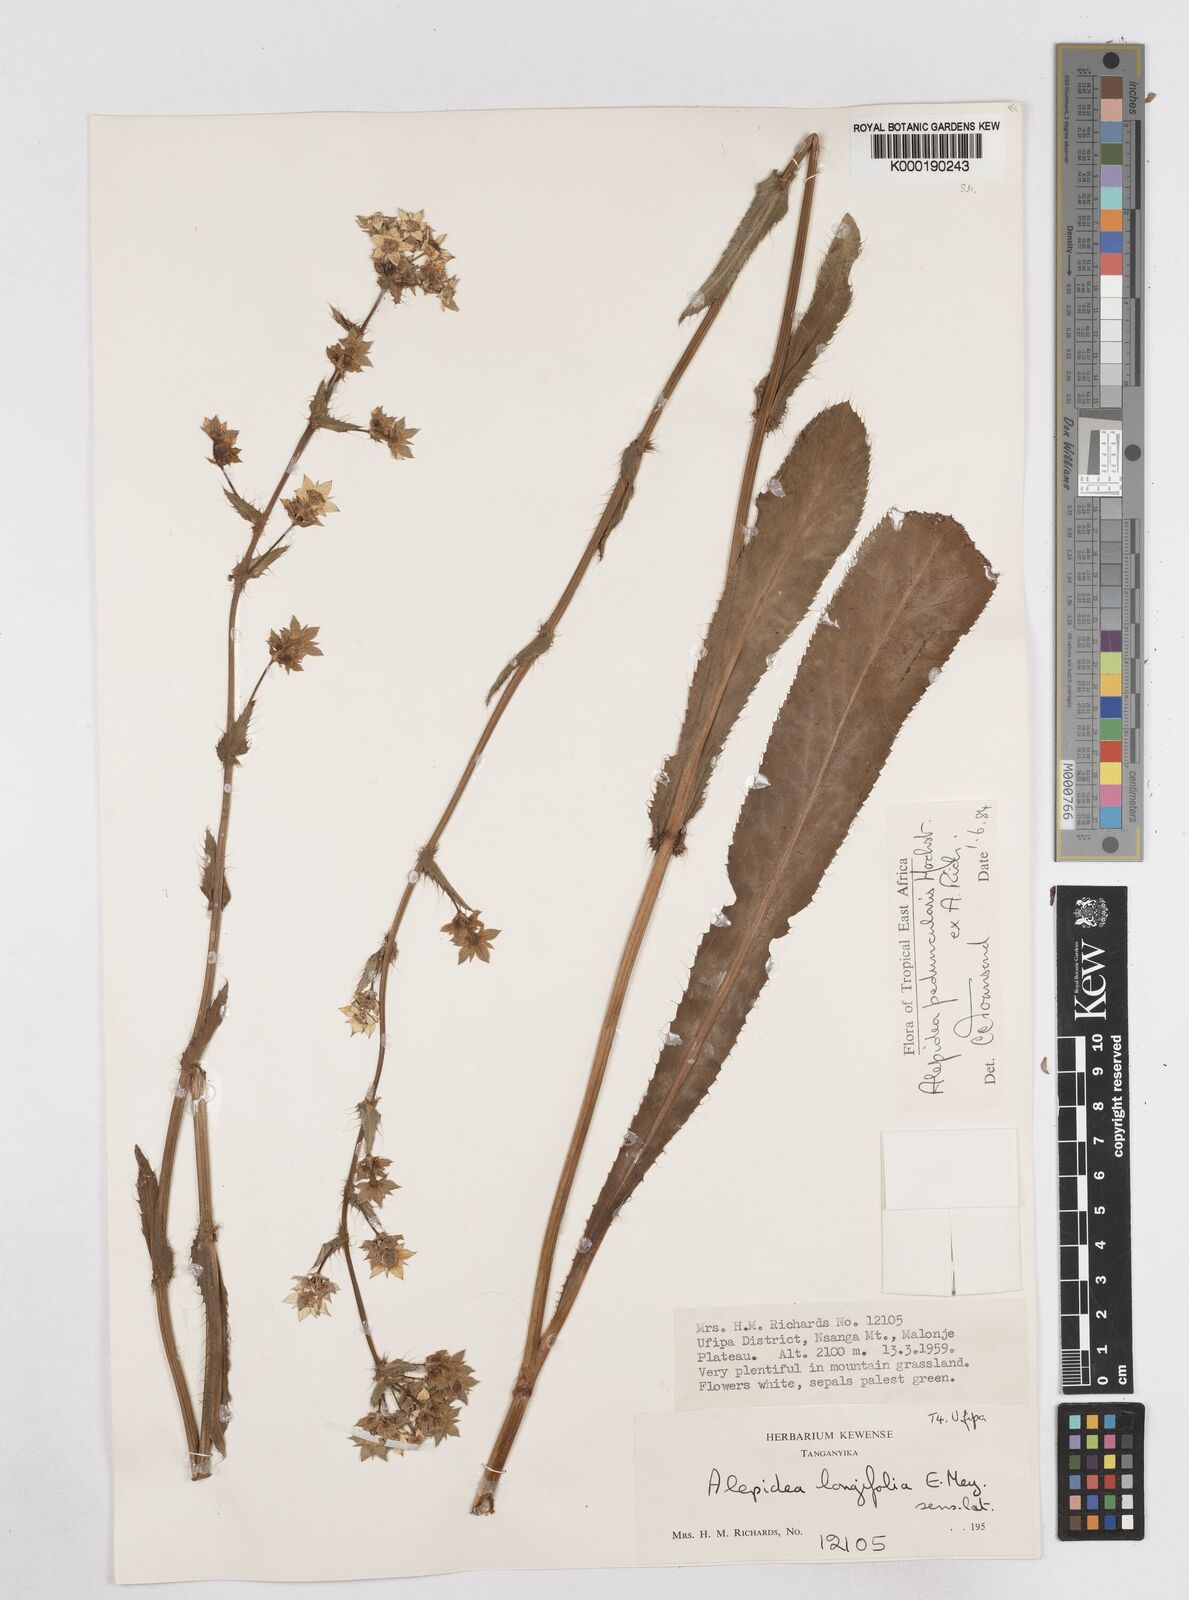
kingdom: Plantae
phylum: Tracheophyta
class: Magnoliopsida
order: Apiales
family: Apiaceae
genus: Alepidea
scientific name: Alepidea peduncularis
